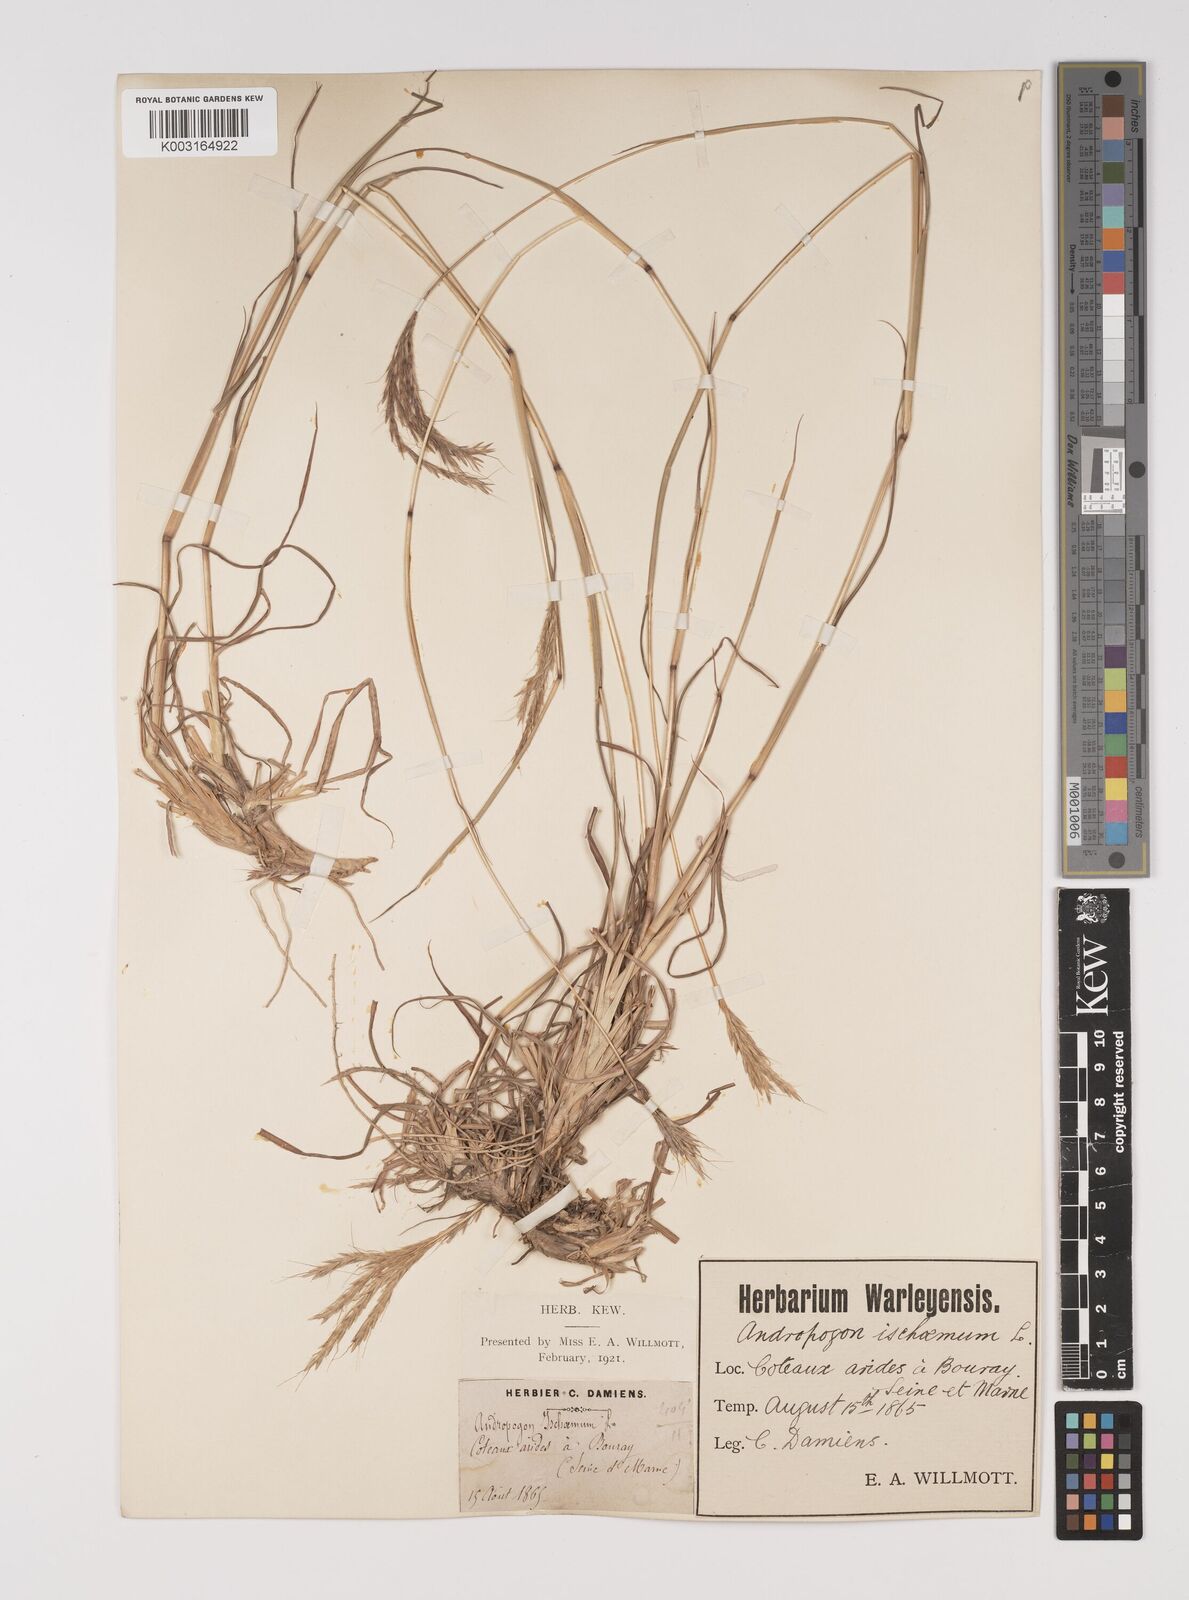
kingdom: Plantae
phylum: Tracheophyta
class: Liliopsida
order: Poales
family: Poaceae
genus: Bothriochloa
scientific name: Bothriochloa ischaemum
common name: Yellow bluestem
